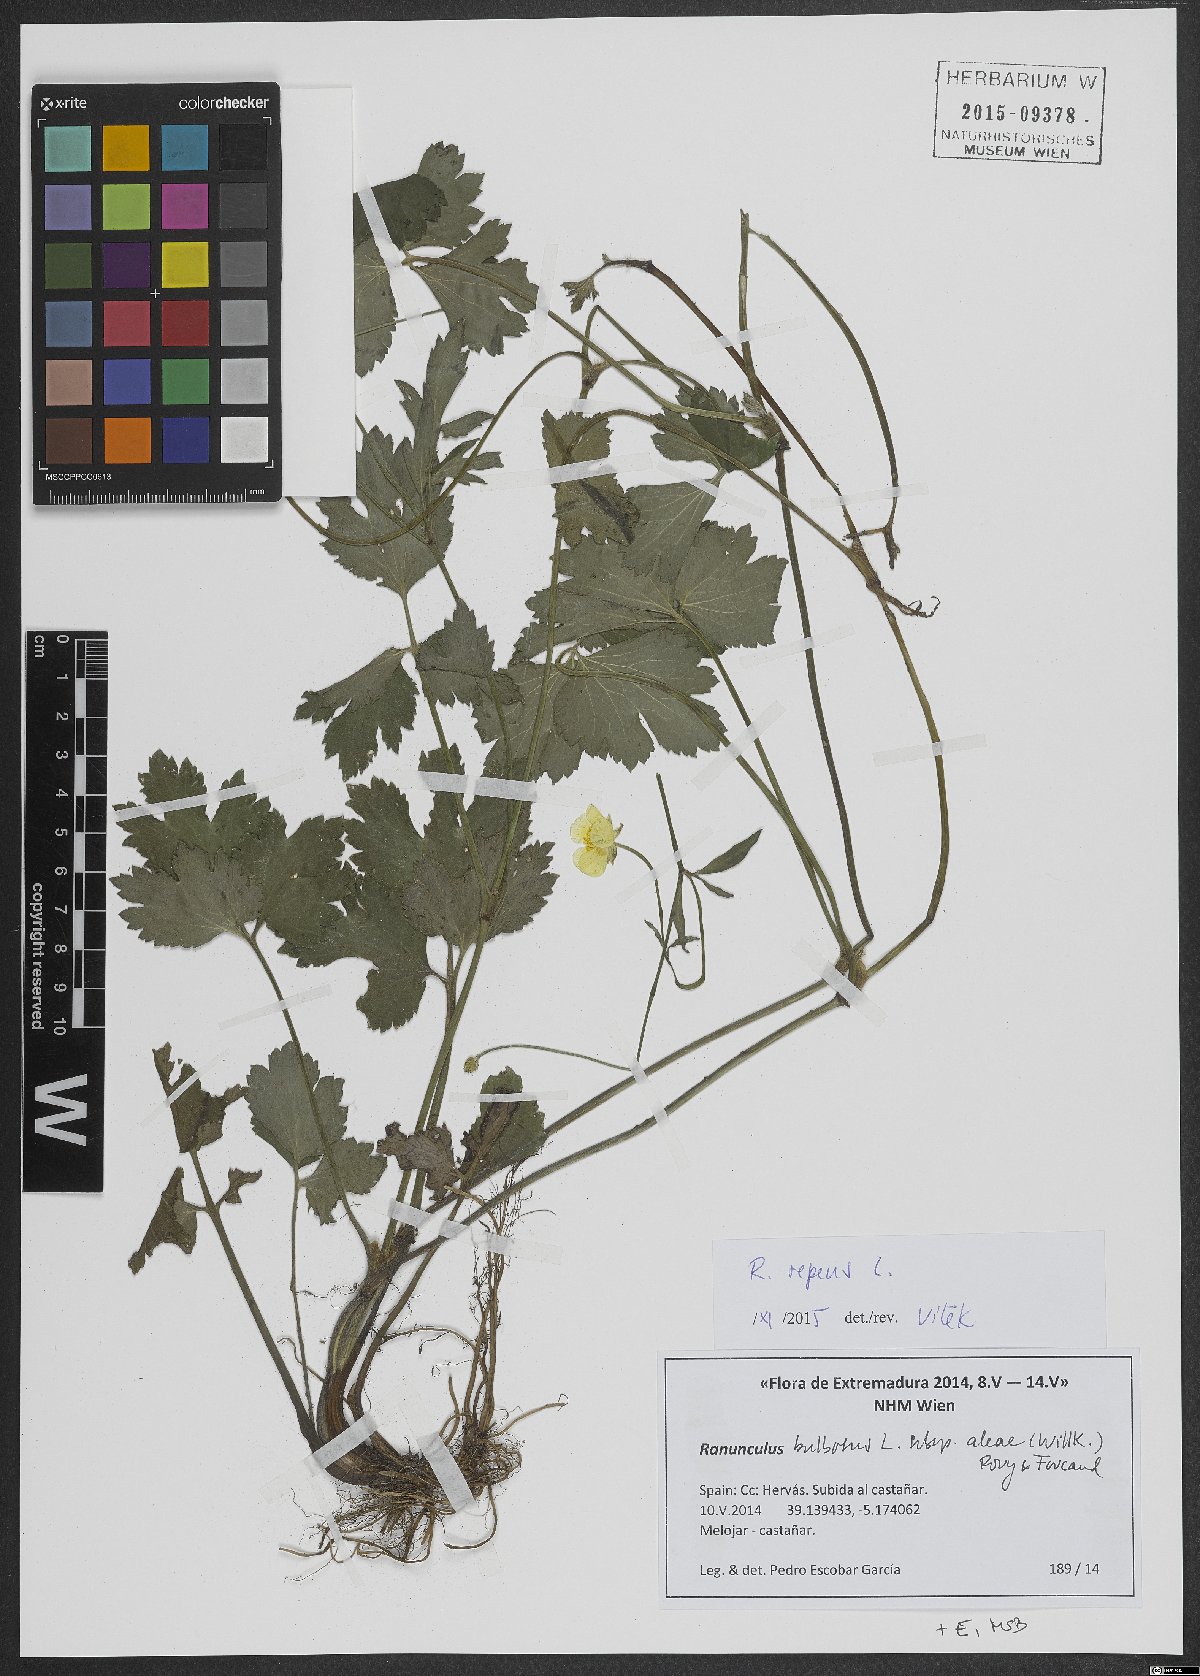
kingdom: Plantae
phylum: Tracheophyta
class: Magnoliopsida
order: Ranunculales
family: Ranunculaceae
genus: Ranunculus
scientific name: Ranunculus repens
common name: Creeping buttercup
